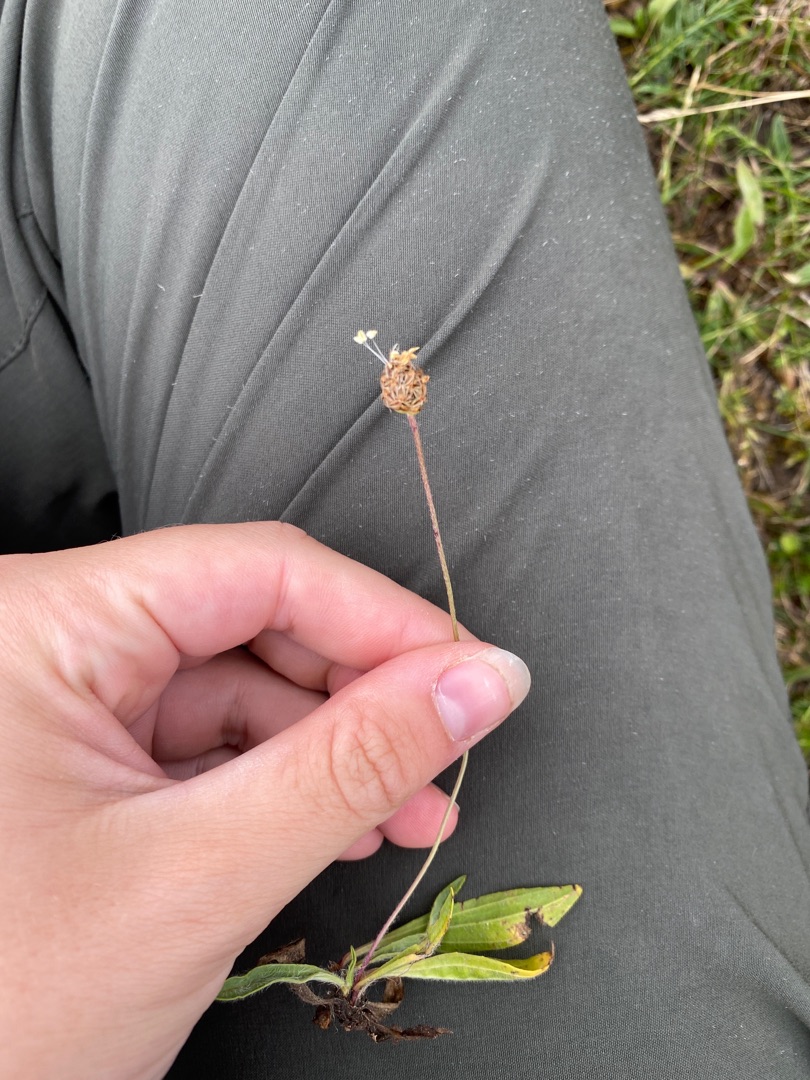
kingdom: Plantae
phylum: Tracheophyta
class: Magnoliopsida
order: Lamiales
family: Plantaginaceae
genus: Plantago
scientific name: Plantago lanceolata
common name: Lancet-vejbred
